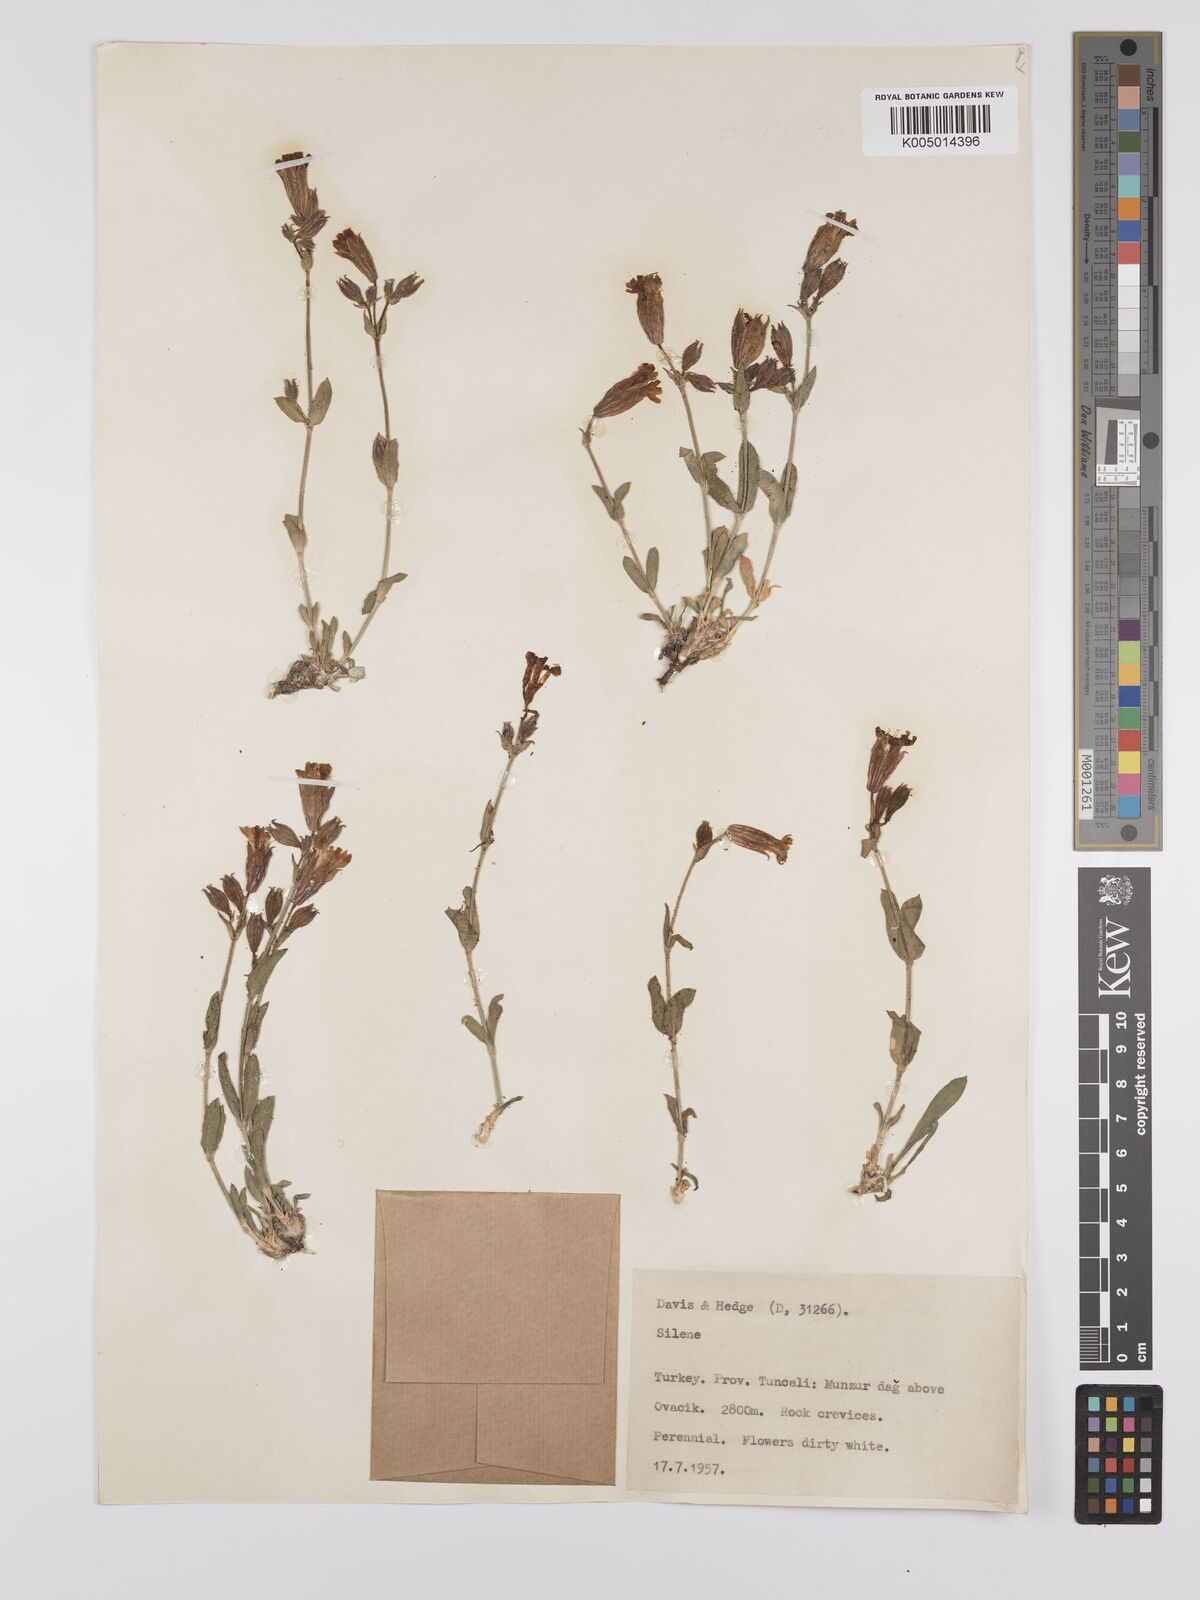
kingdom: Plantae
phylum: Tracheophyta
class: Magnoliopsida
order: Caryophyllales
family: Caryophyllaceae
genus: Silene
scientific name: Silene
